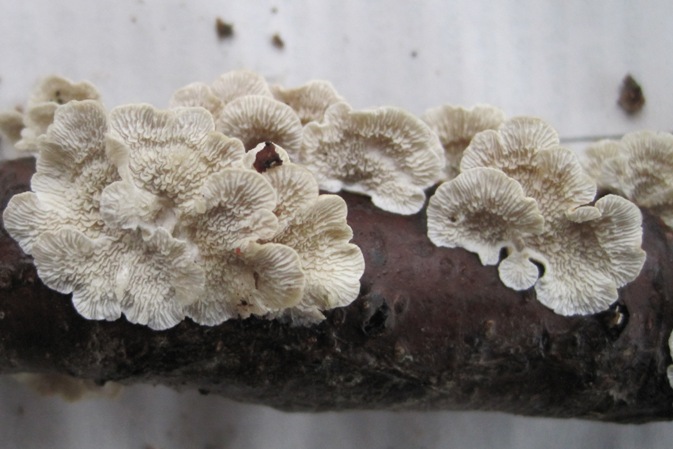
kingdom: Fungi
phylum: Basidiomycota
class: Agaricomycetes
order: Amylocorticiales
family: Amylocorticiaceae
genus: Plicaturopsis
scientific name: Plicaturopsis crispa
